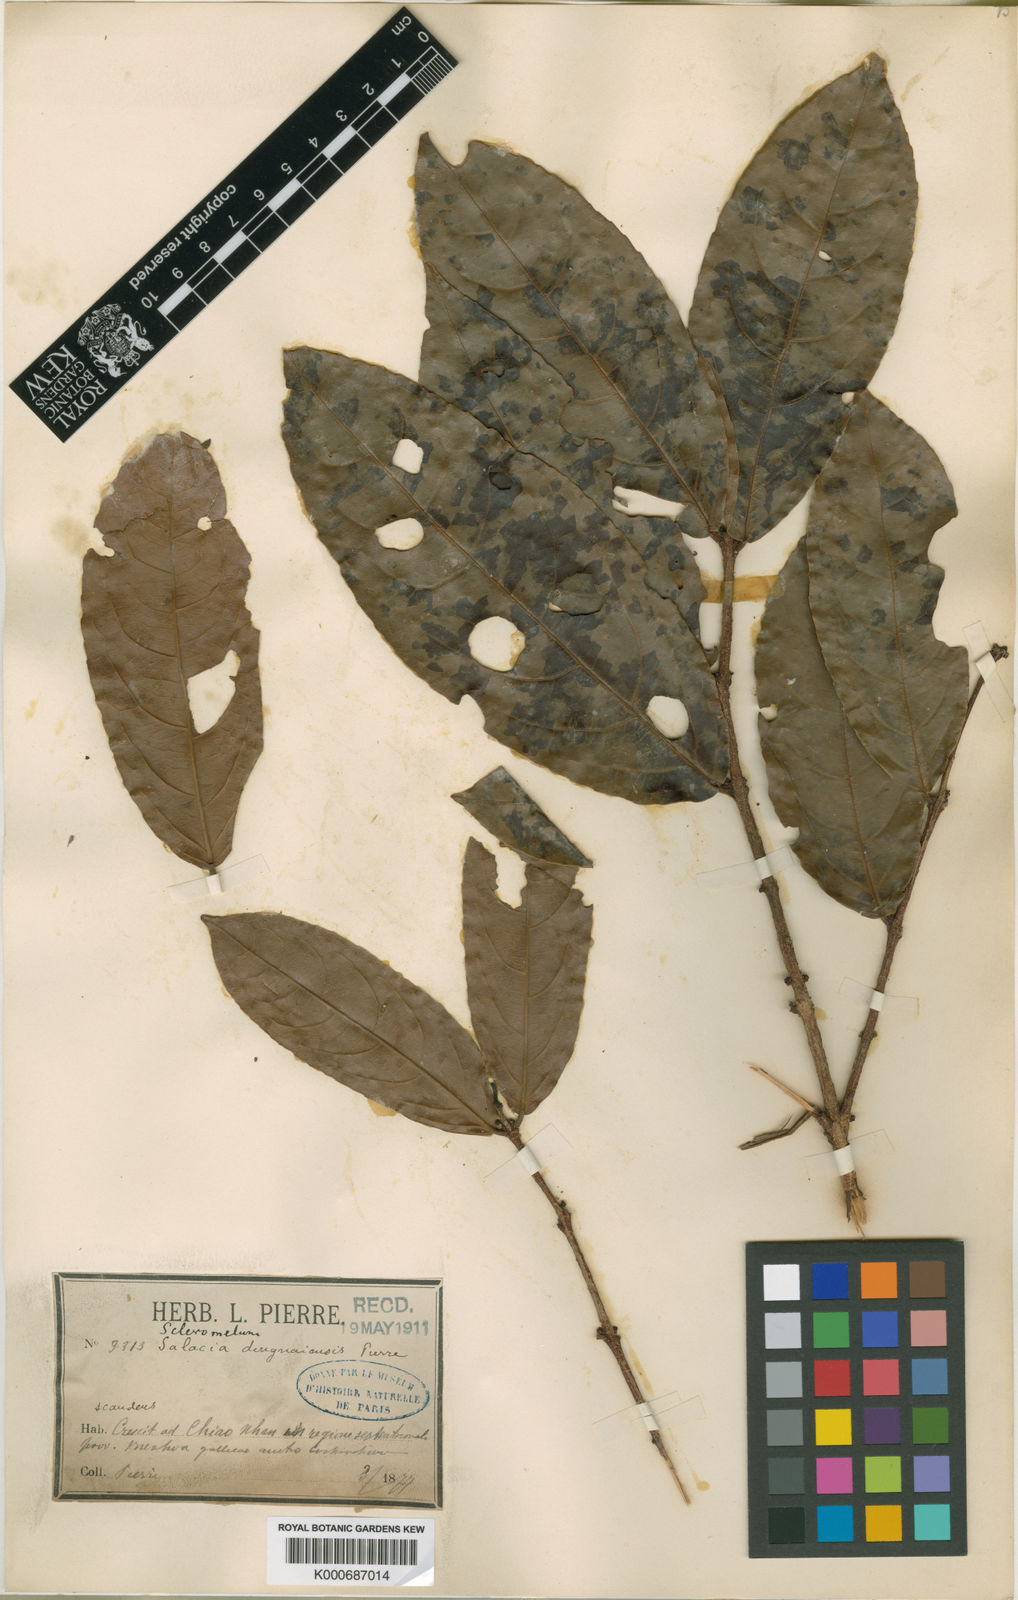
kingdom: Plantae
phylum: Tracheophyta
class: Magnoliopsida
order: Celastrales
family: Celastraceae
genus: Salacia
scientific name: Salacia dongnaiensis
